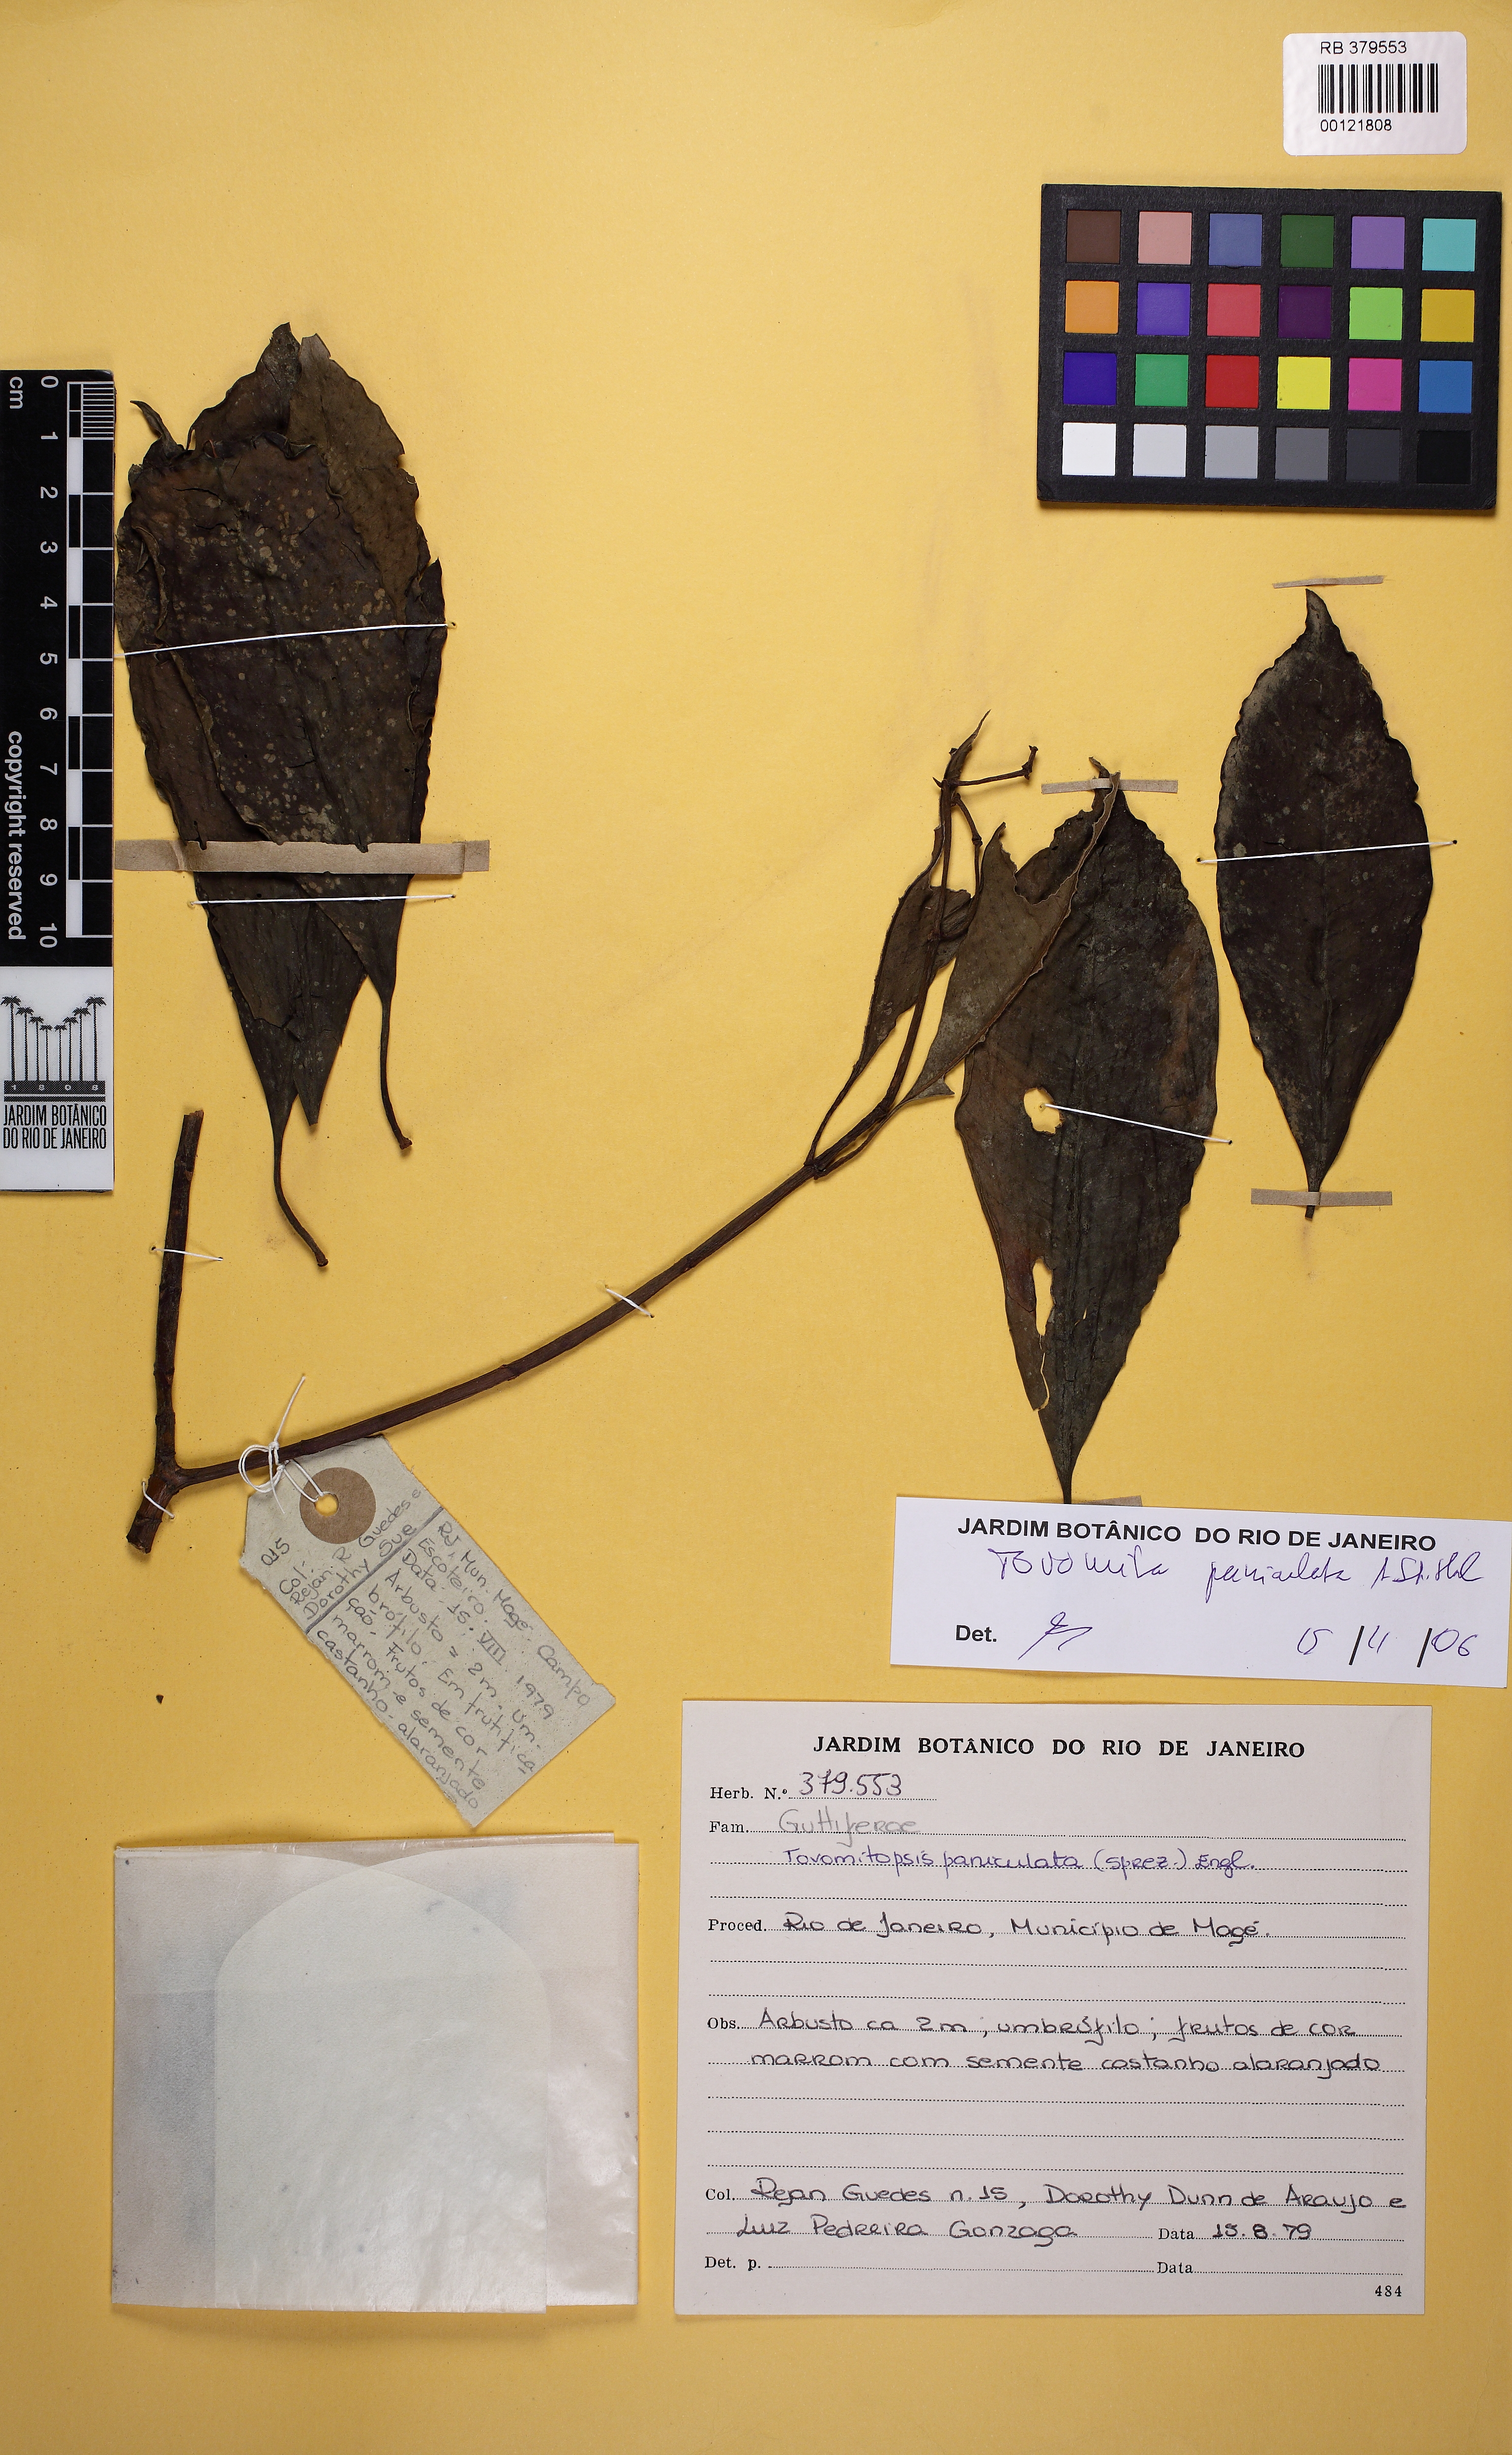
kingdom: Plantae
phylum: Tracheophyta
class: Magnoliopsida
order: Malpighiales
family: Clusiaceae
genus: Chrysochlamys
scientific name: Chrysochlamys paniculata
